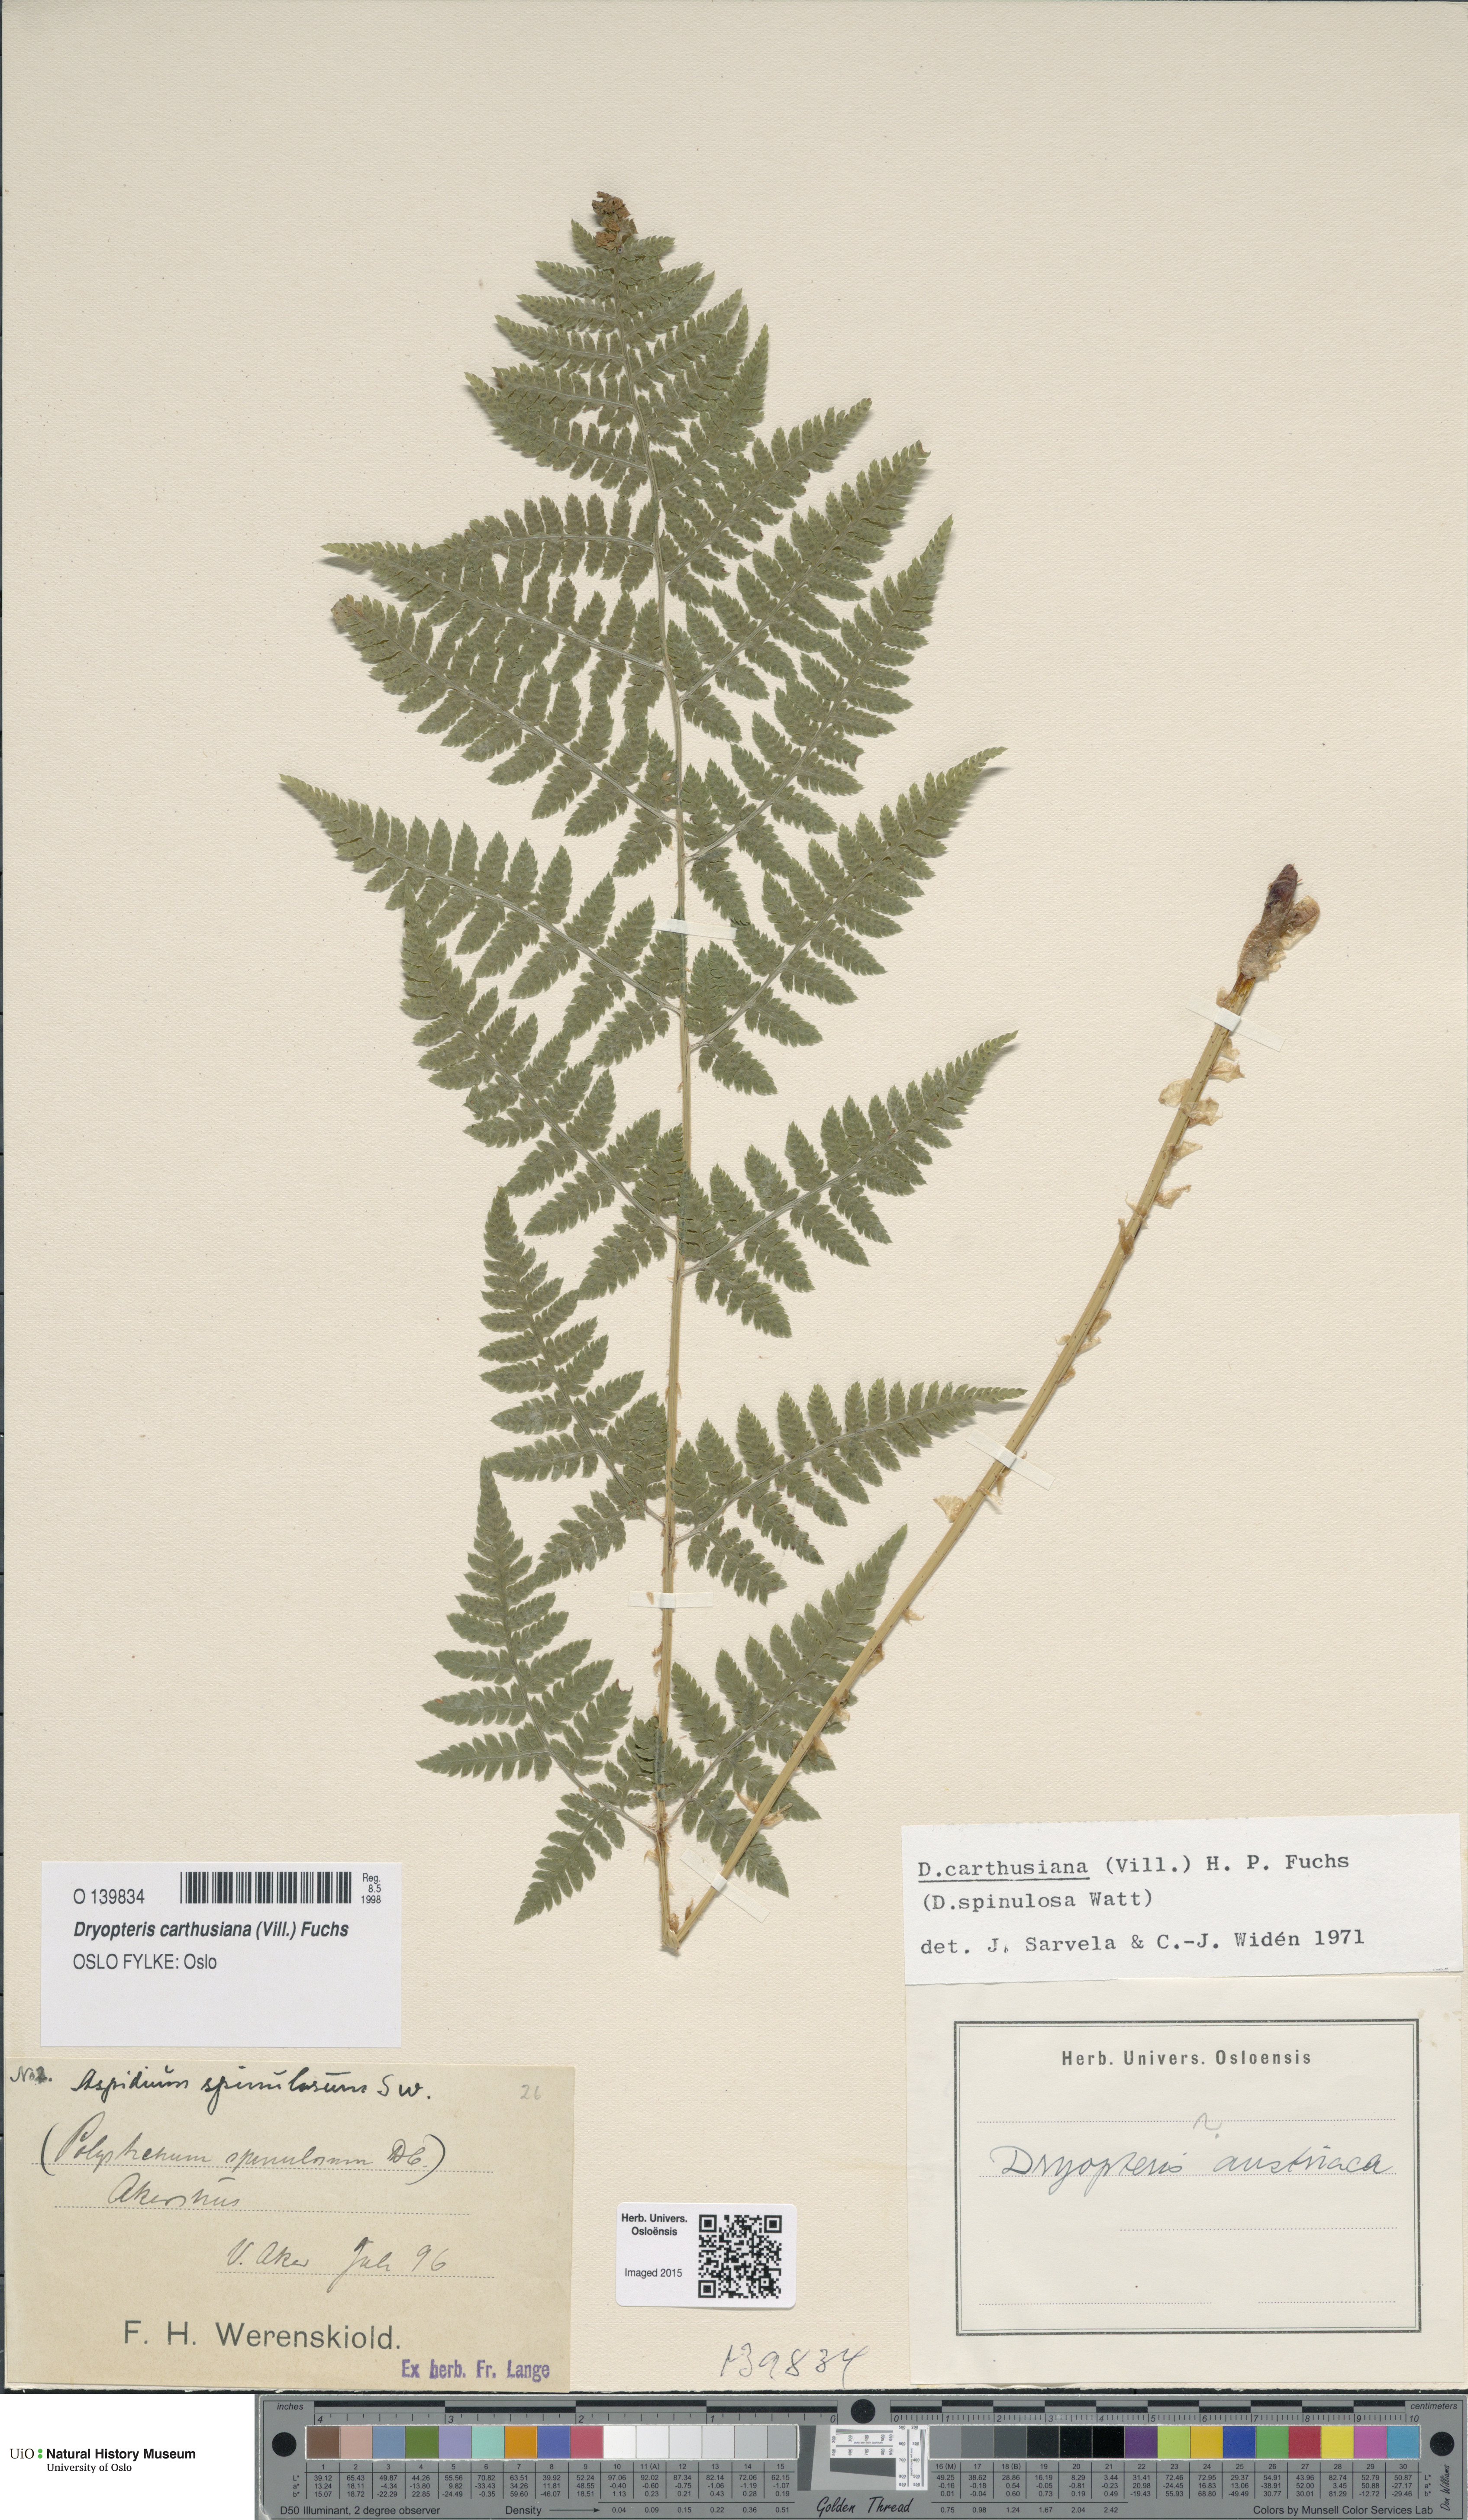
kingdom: Plantae
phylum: Tracheophyta
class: Polypodiopsida
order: Polypodiales
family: Dryopteridaceae
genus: Dryopteris
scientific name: Dryopteris carthusiana
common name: Narrow buckler-fern
